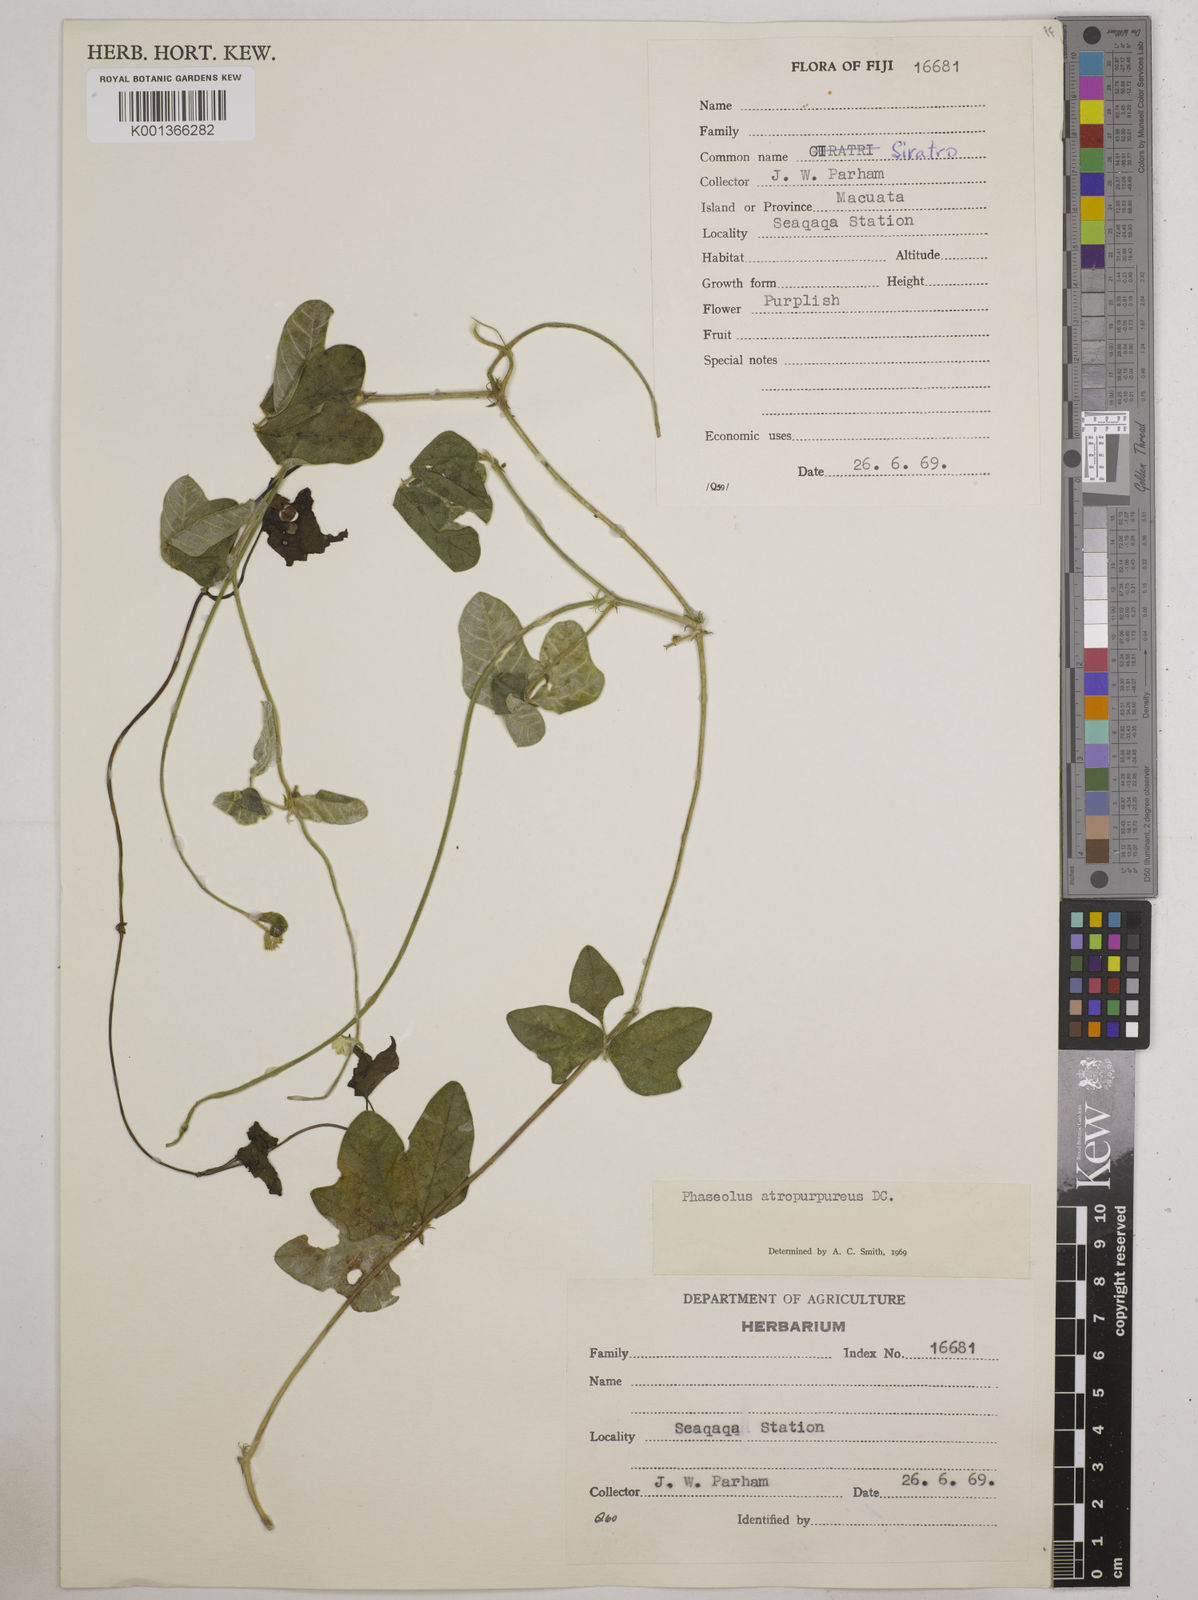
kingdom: Plantae
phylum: Tracheophyta
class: Magnoliopsida
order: Fabales
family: Fabaceae
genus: Macroptilium
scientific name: Macroptilium atropurpureum
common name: Purple bushbean
